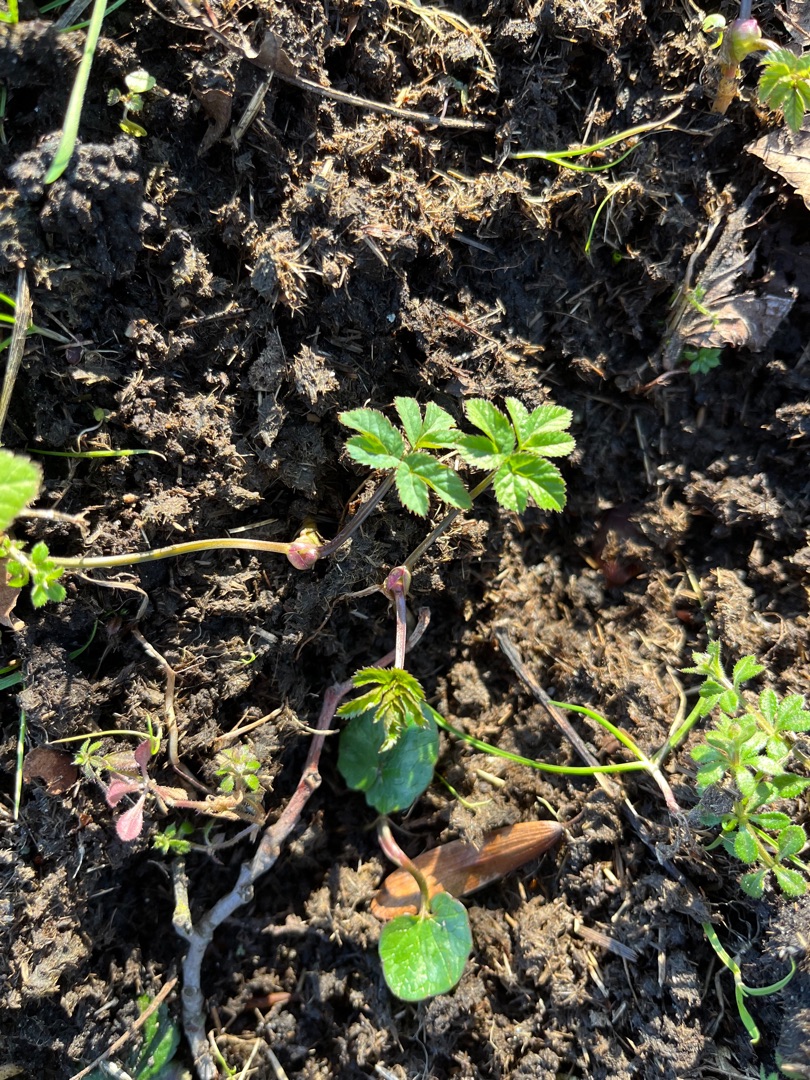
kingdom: Plantae
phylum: Tracheophyta
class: Magnoliopsida
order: Apiales
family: Apiaceae
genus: Aegopodium
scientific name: Aegopodium podagraria
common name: Skvalderkål
